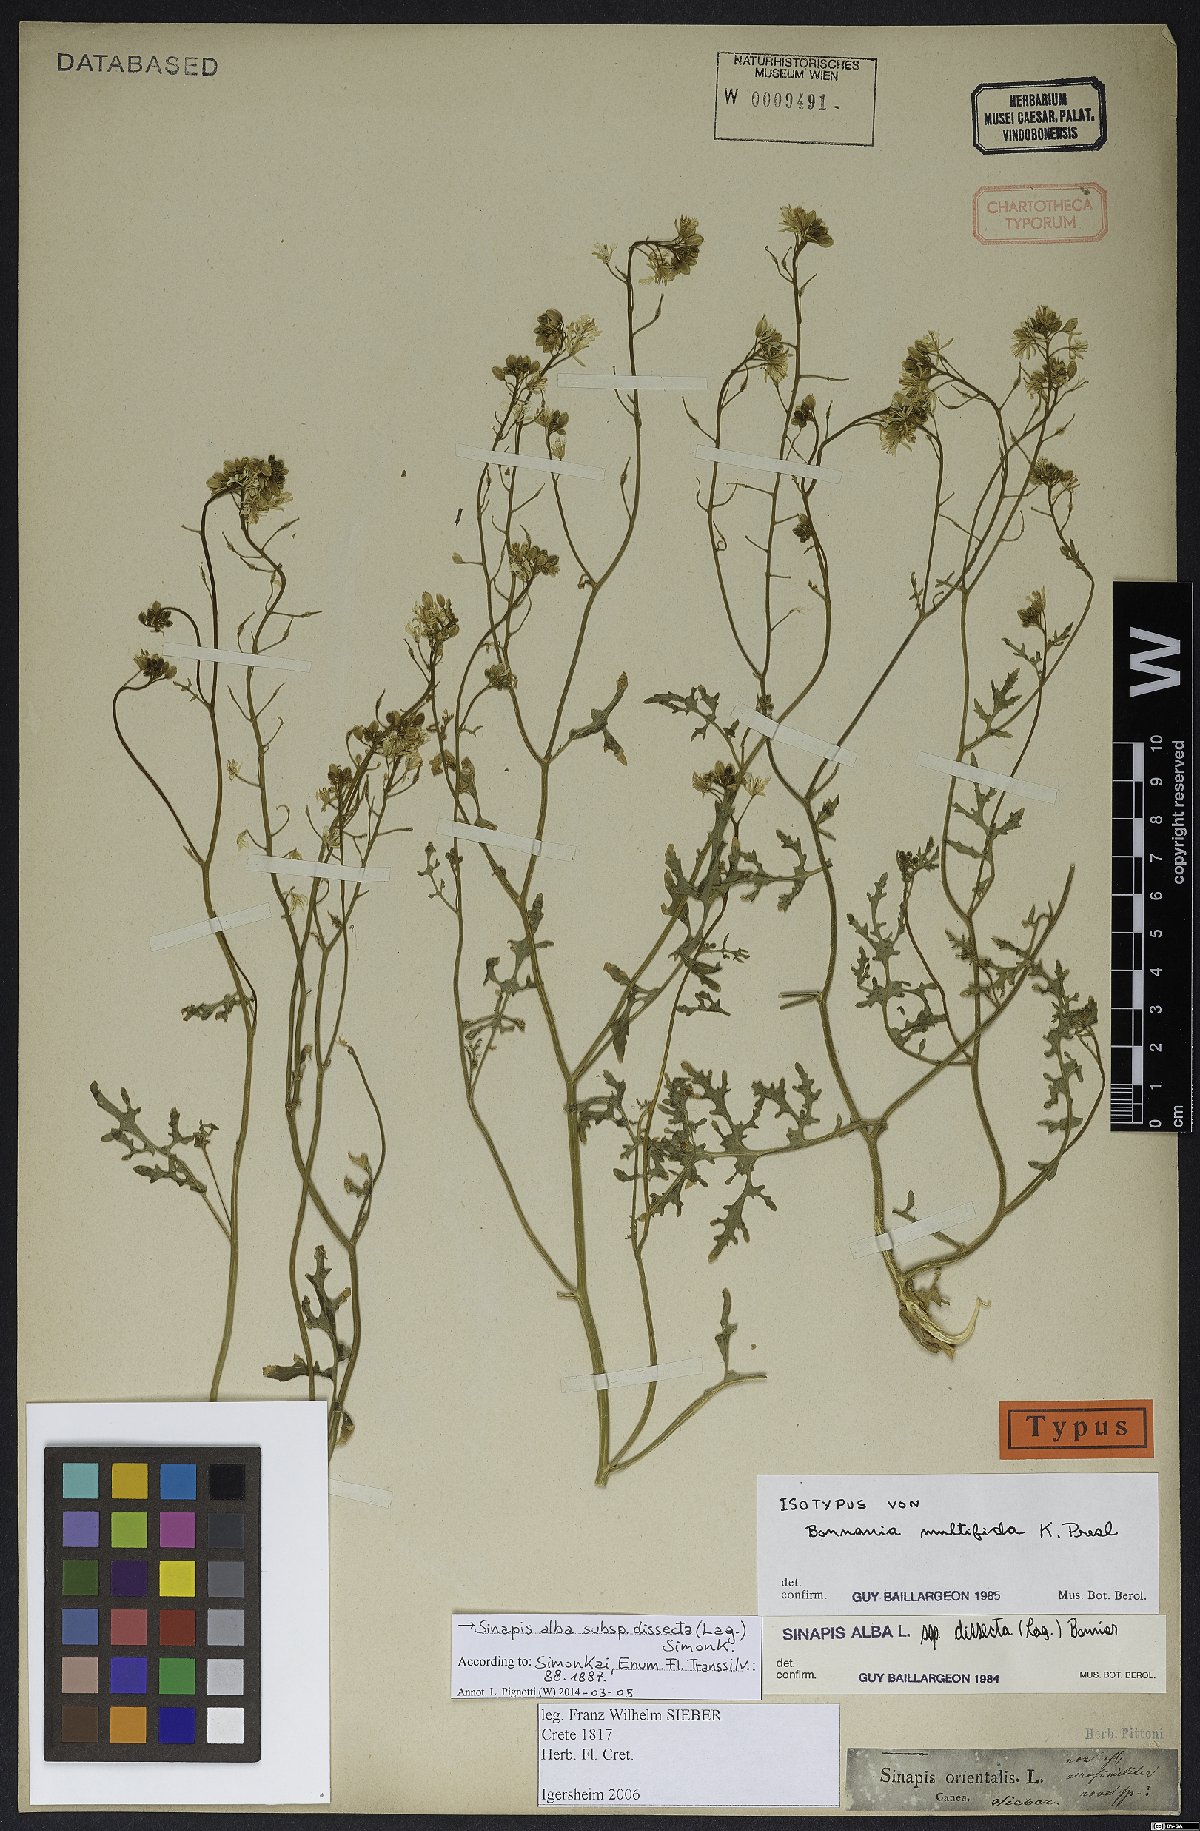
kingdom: Plantae
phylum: Tracheophyta
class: Magnoliopsida
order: Brassicales
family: Brassicaceae
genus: Sinapis
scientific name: Sinapis alba
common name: White mustard
